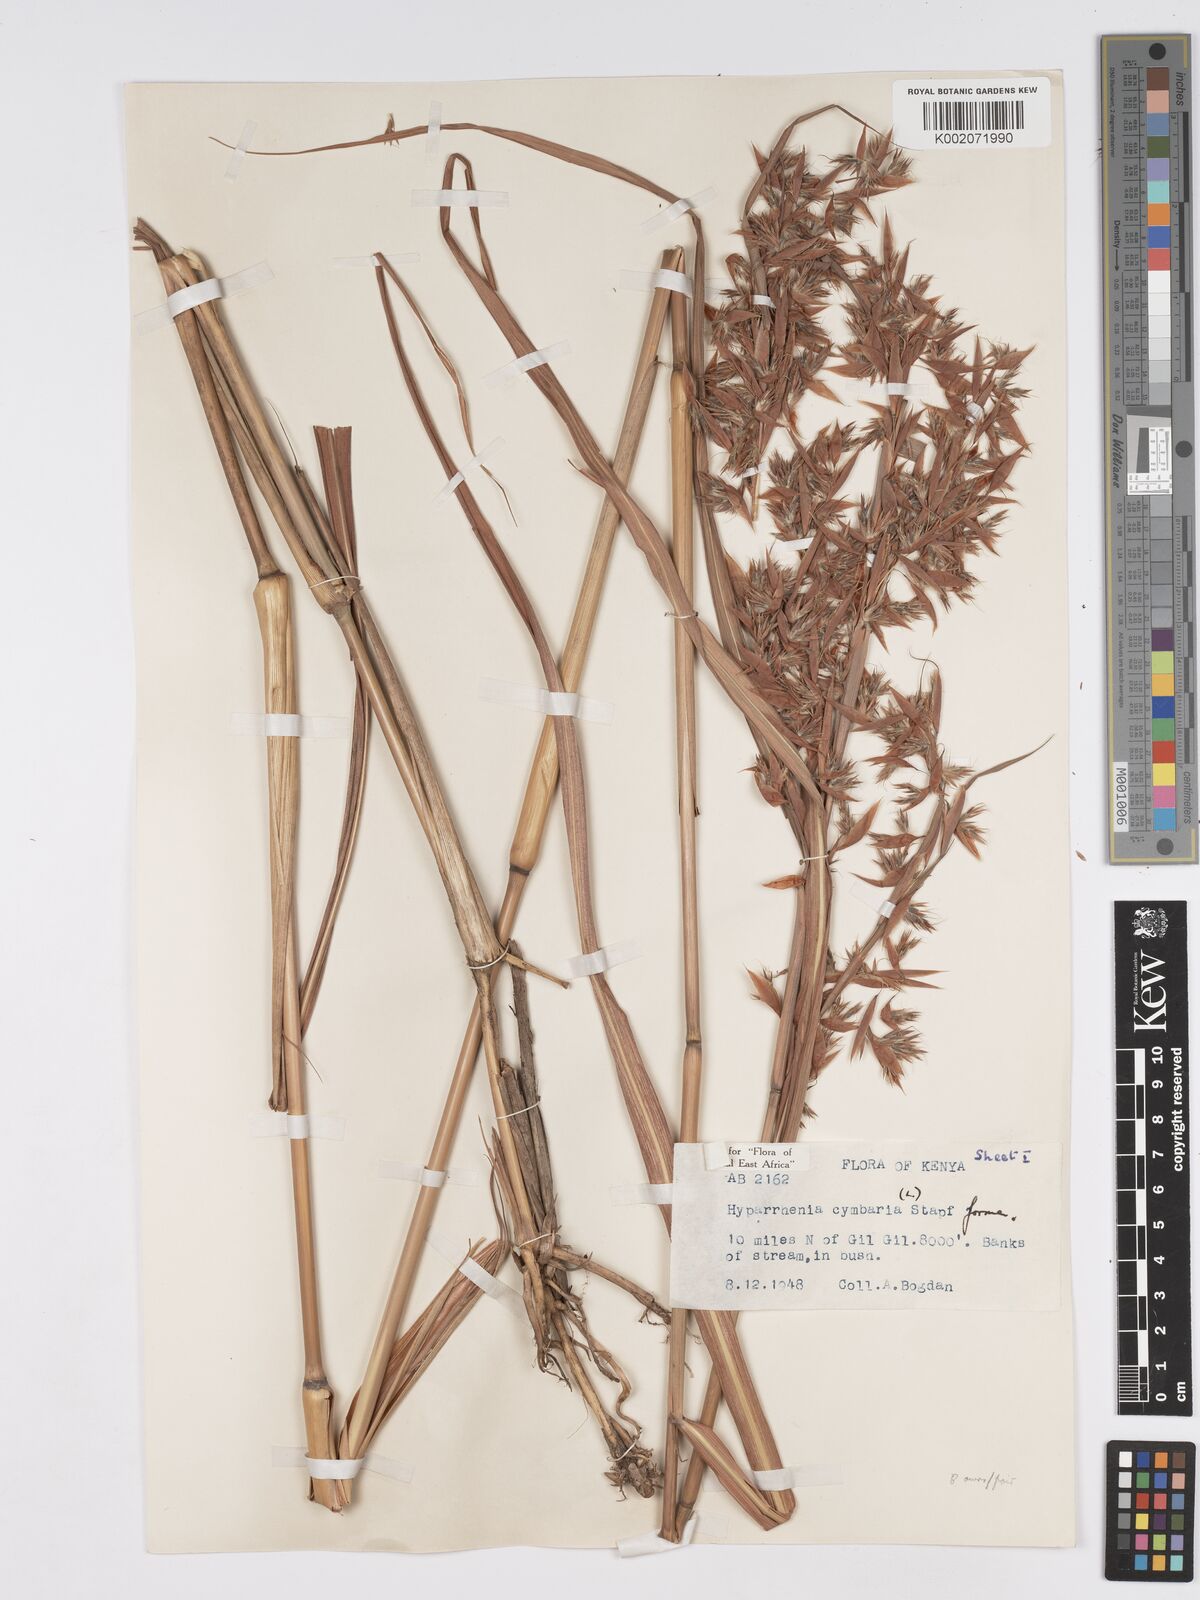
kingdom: Plantae
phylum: Tracheophyta
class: Liliopsida
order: Poales
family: Poaceae
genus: Hyparrhenia
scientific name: Hyparrhenia cymbaria
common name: Boat thatching grass
